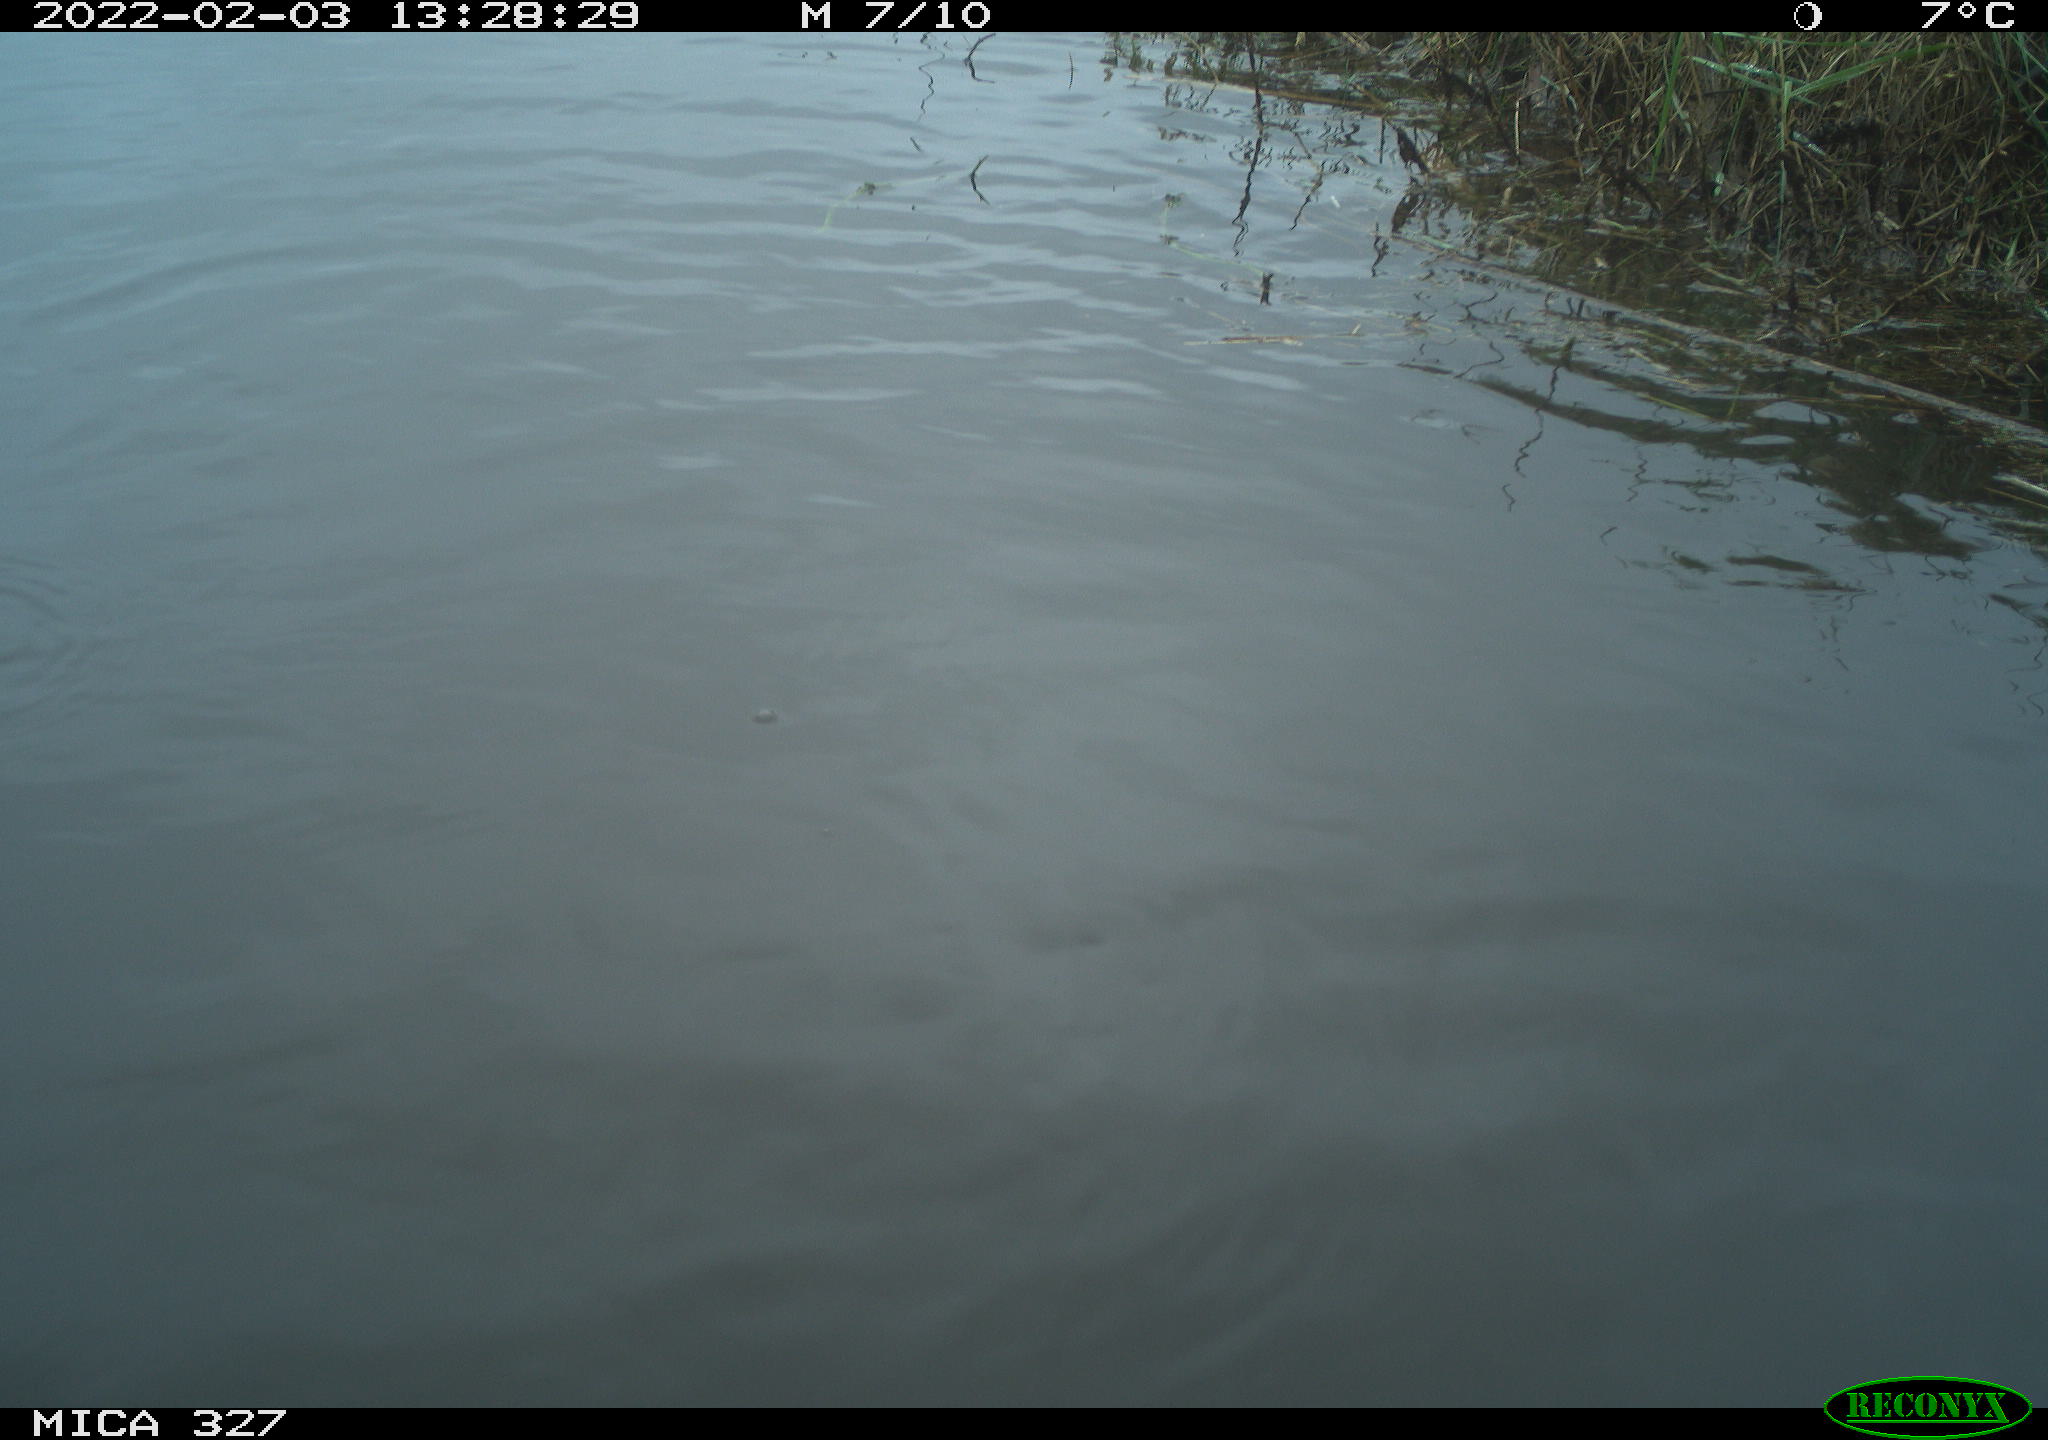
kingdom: Animalia
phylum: Chordata
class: Aves
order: Podicipediformes
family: Podicipedidae
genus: Tachybaptus
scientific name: Tachybaptus ruficollis
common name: Little grebe
